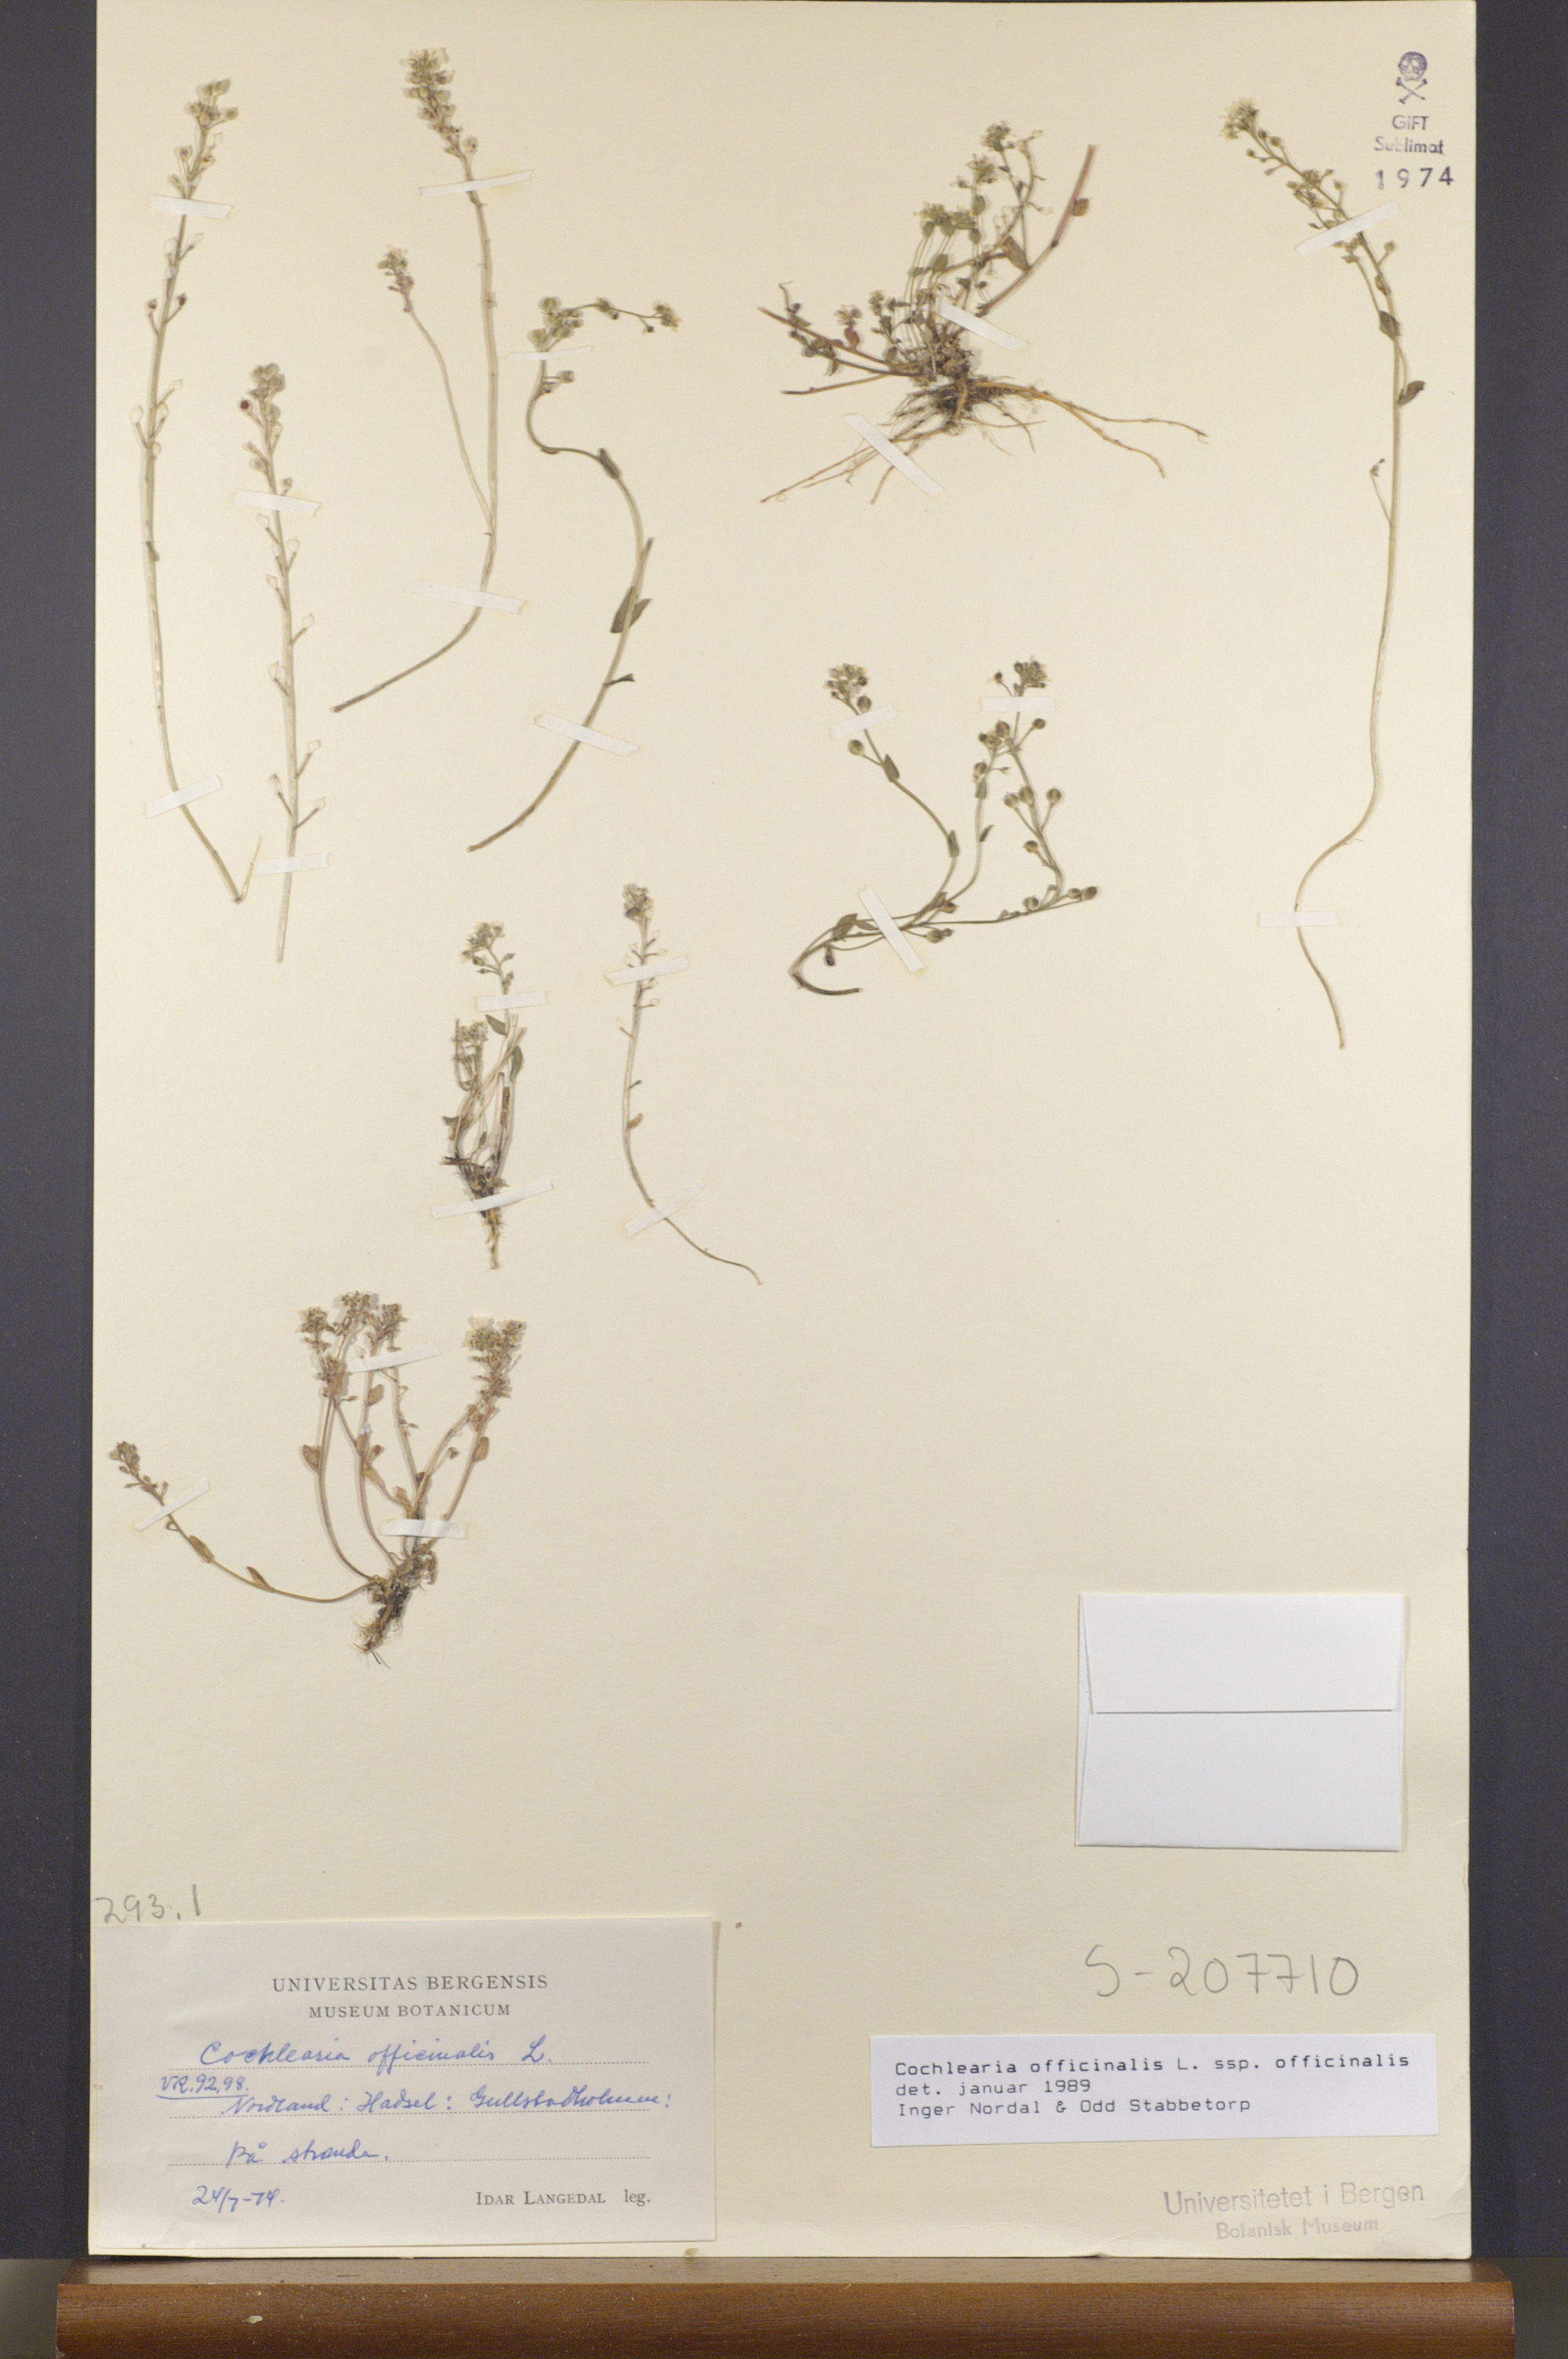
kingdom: Plantae
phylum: Tracheophyta
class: Magnoliopsida
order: Brassicales
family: Brassicaceae
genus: Cochlearia
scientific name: Cochlearia officinalis
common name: Scurvy-grass
